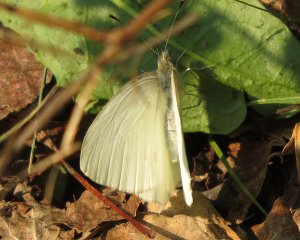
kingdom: Animalia
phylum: Arthropoda
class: Insecta
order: Lepidoptera
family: Pieridae
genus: Pieris
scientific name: Pieris oleracea
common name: Mustard White
